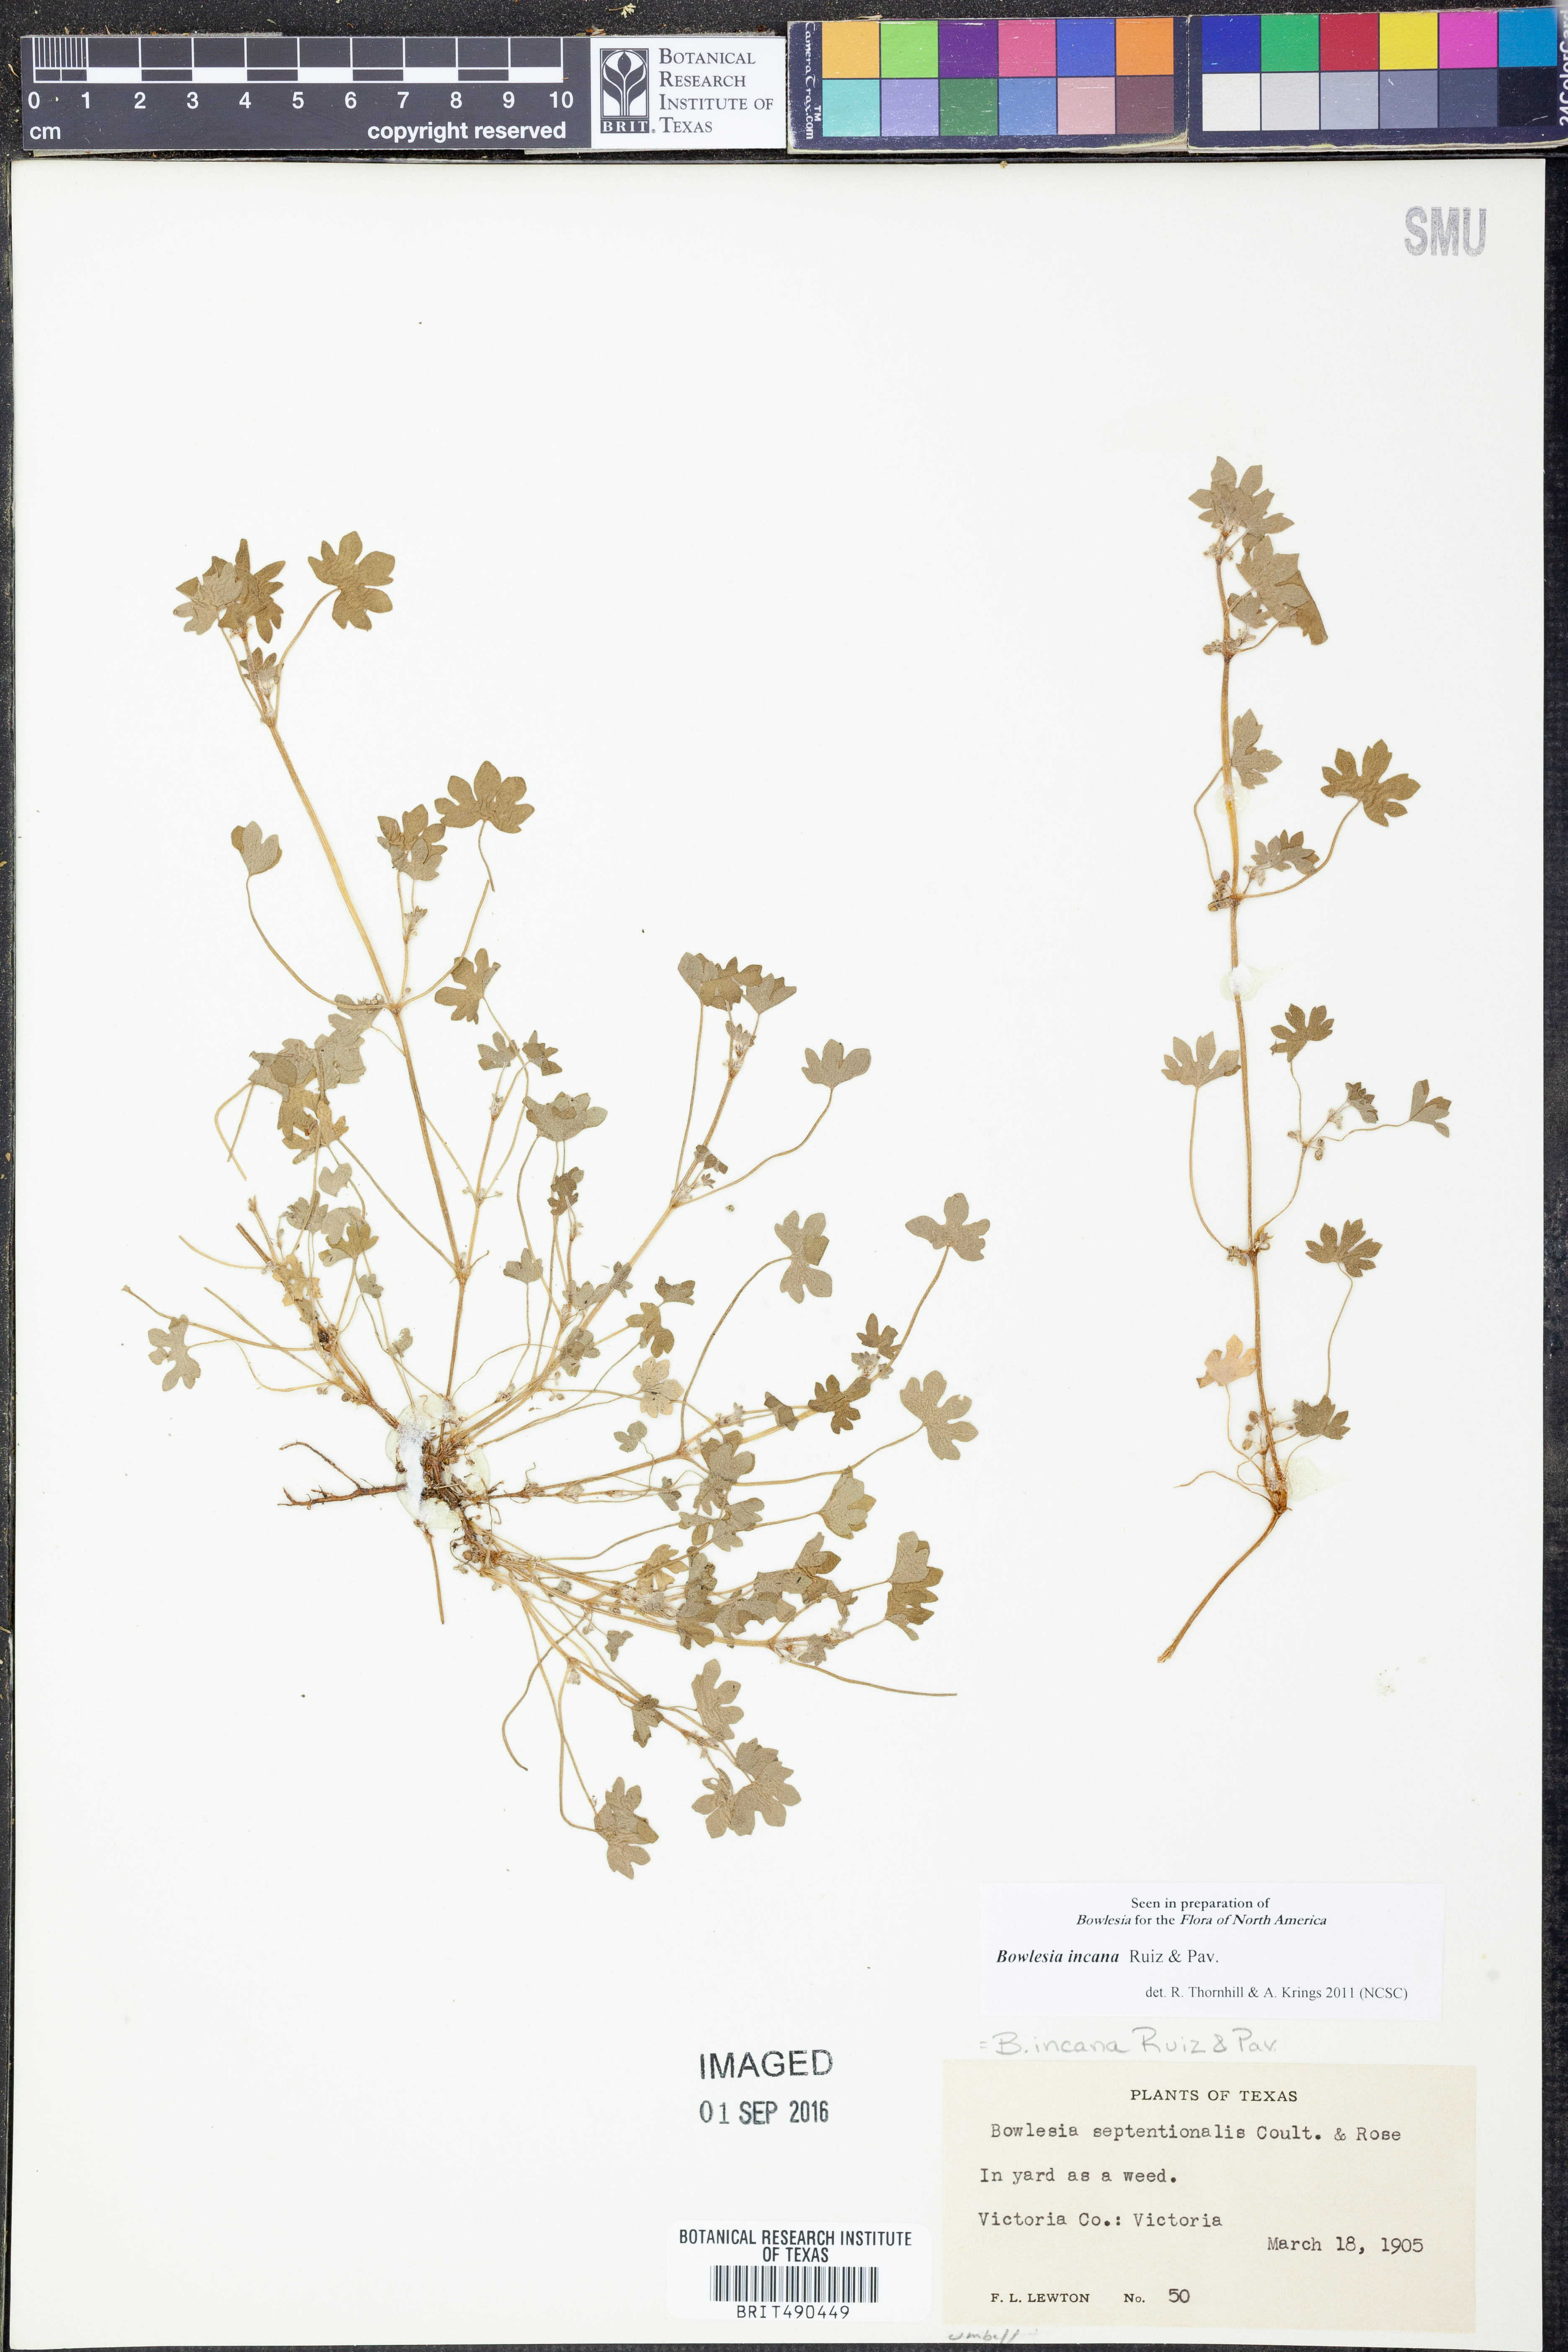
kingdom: Plantae
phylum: Tracheophyta
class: Magnoliopsida
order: Apiales
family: Apiaceae
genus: Bowlesia
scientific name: Bowlesia incana
